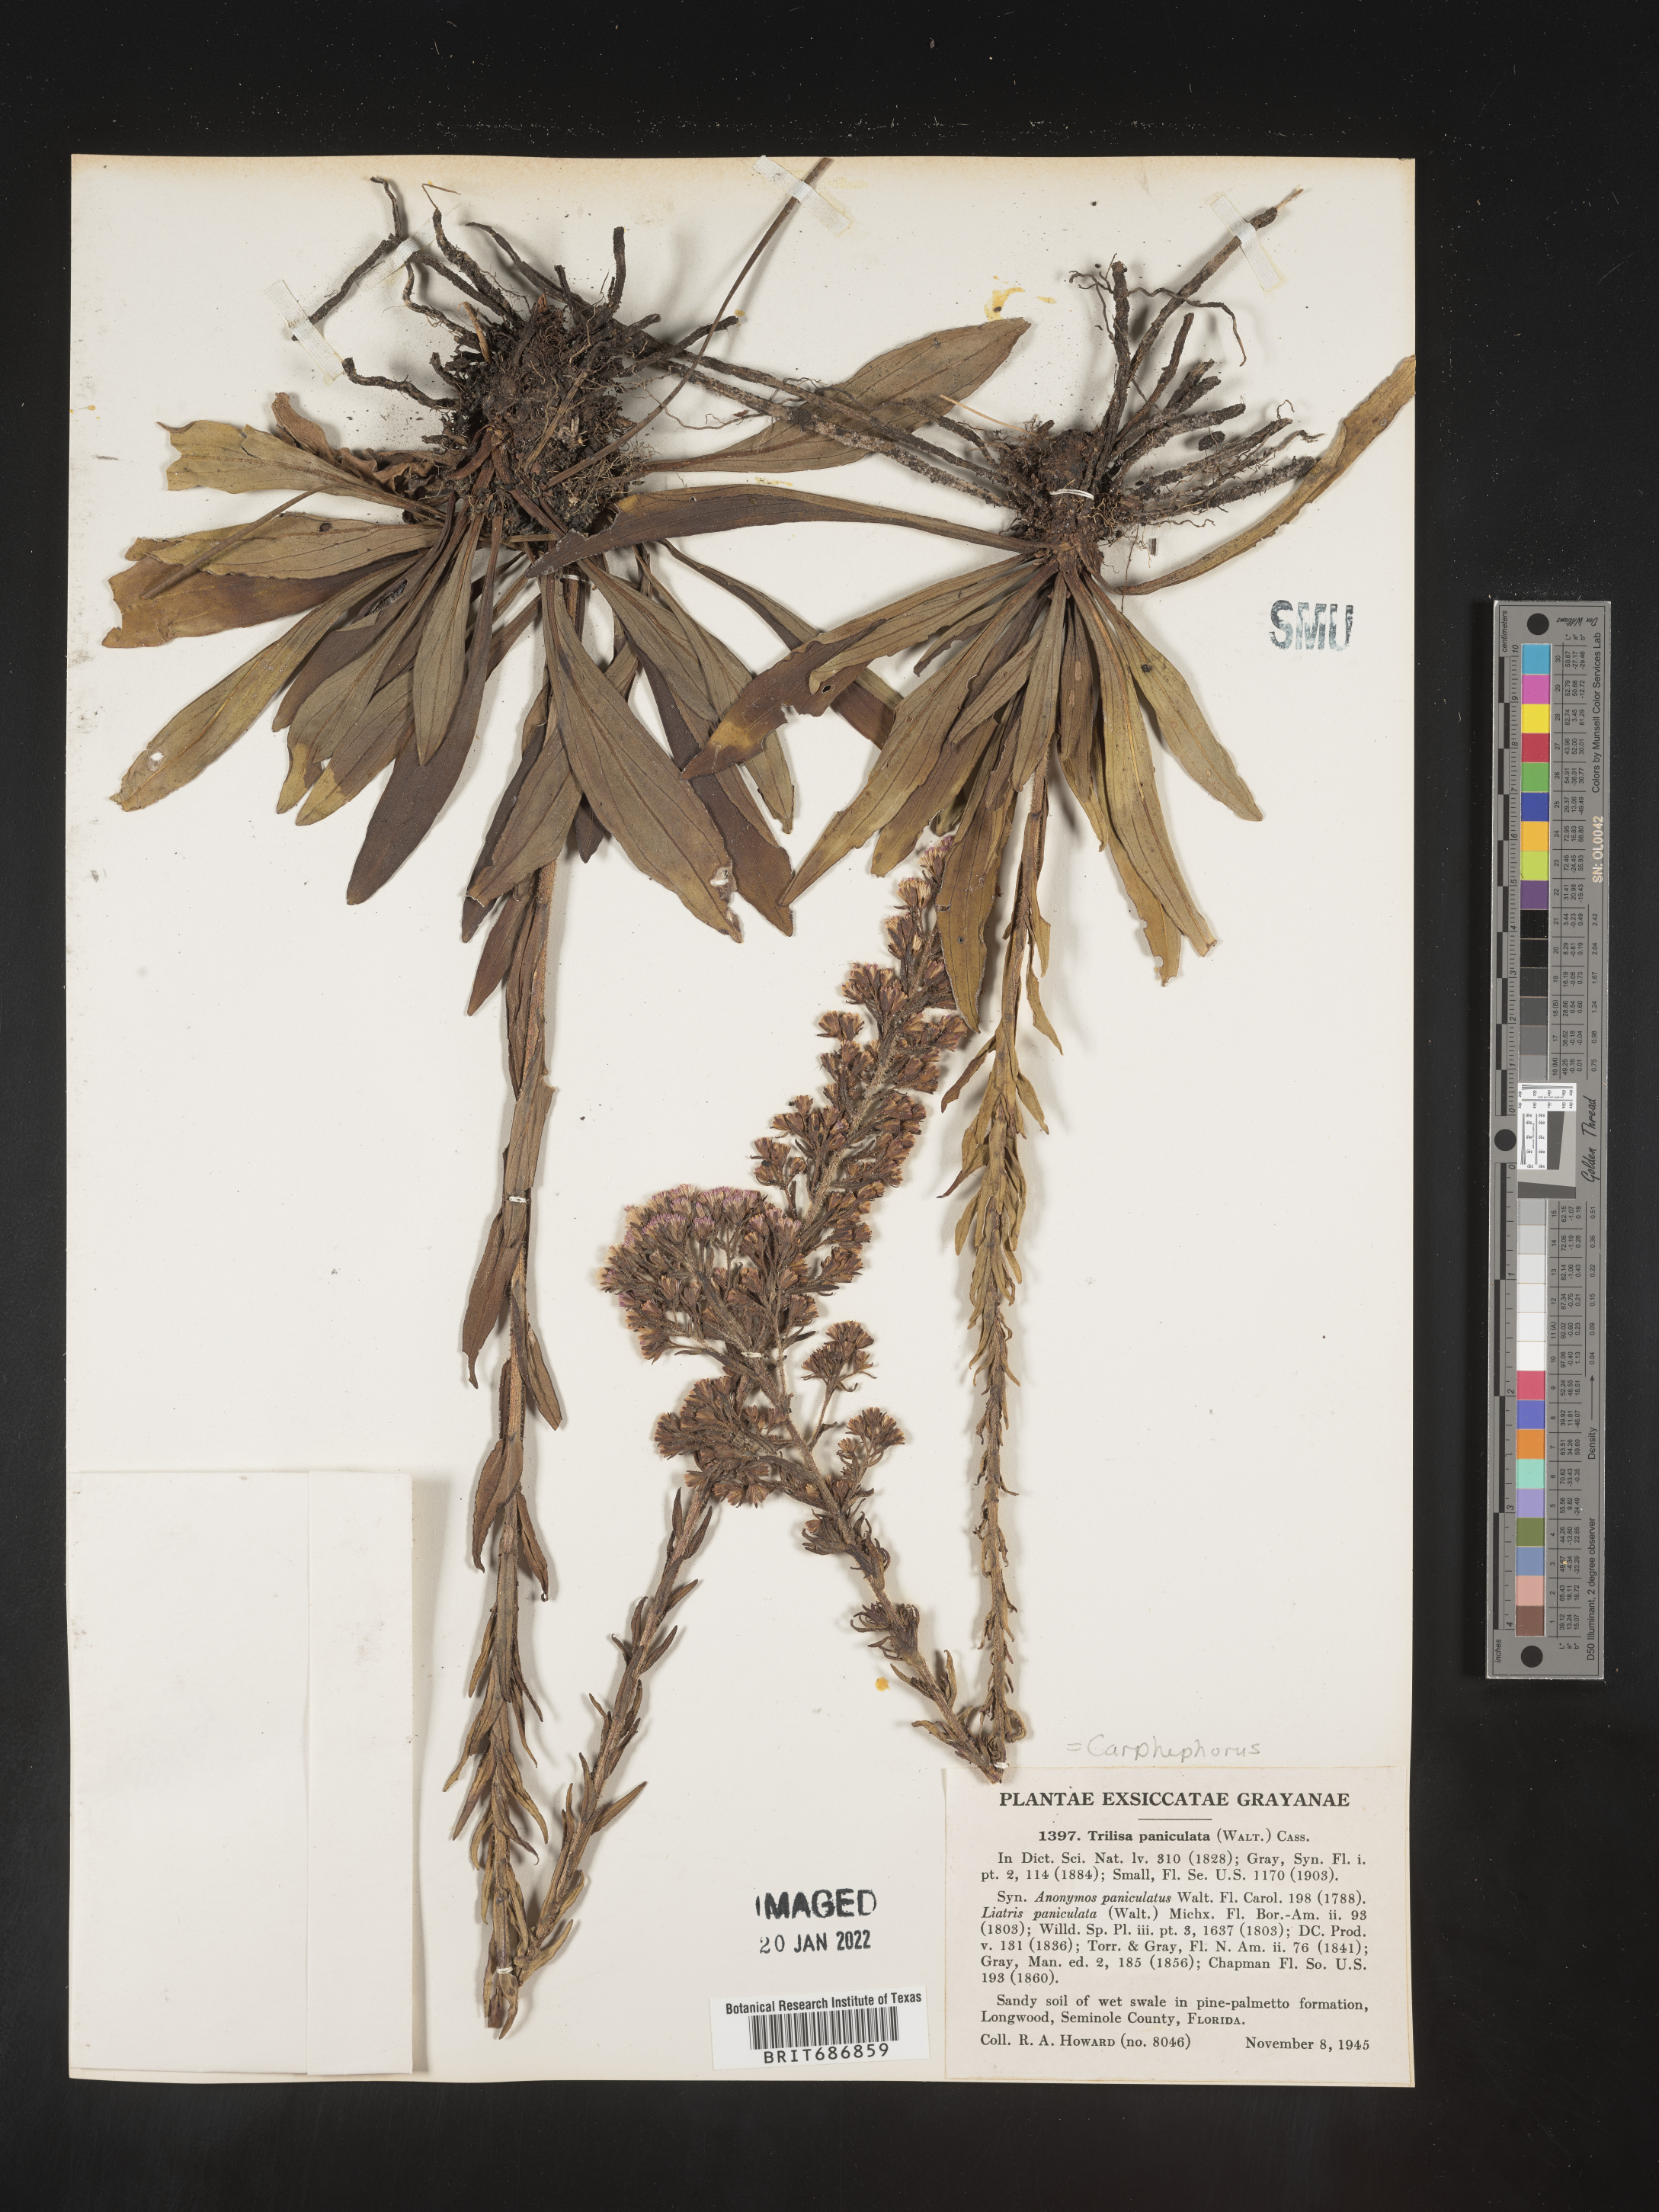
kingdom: Plantae
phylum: Tracheophyta
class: Magnoliopsida
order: Asterales
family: Asteraceae
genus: Carphephorus
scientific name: Carphephorus paniculatus
